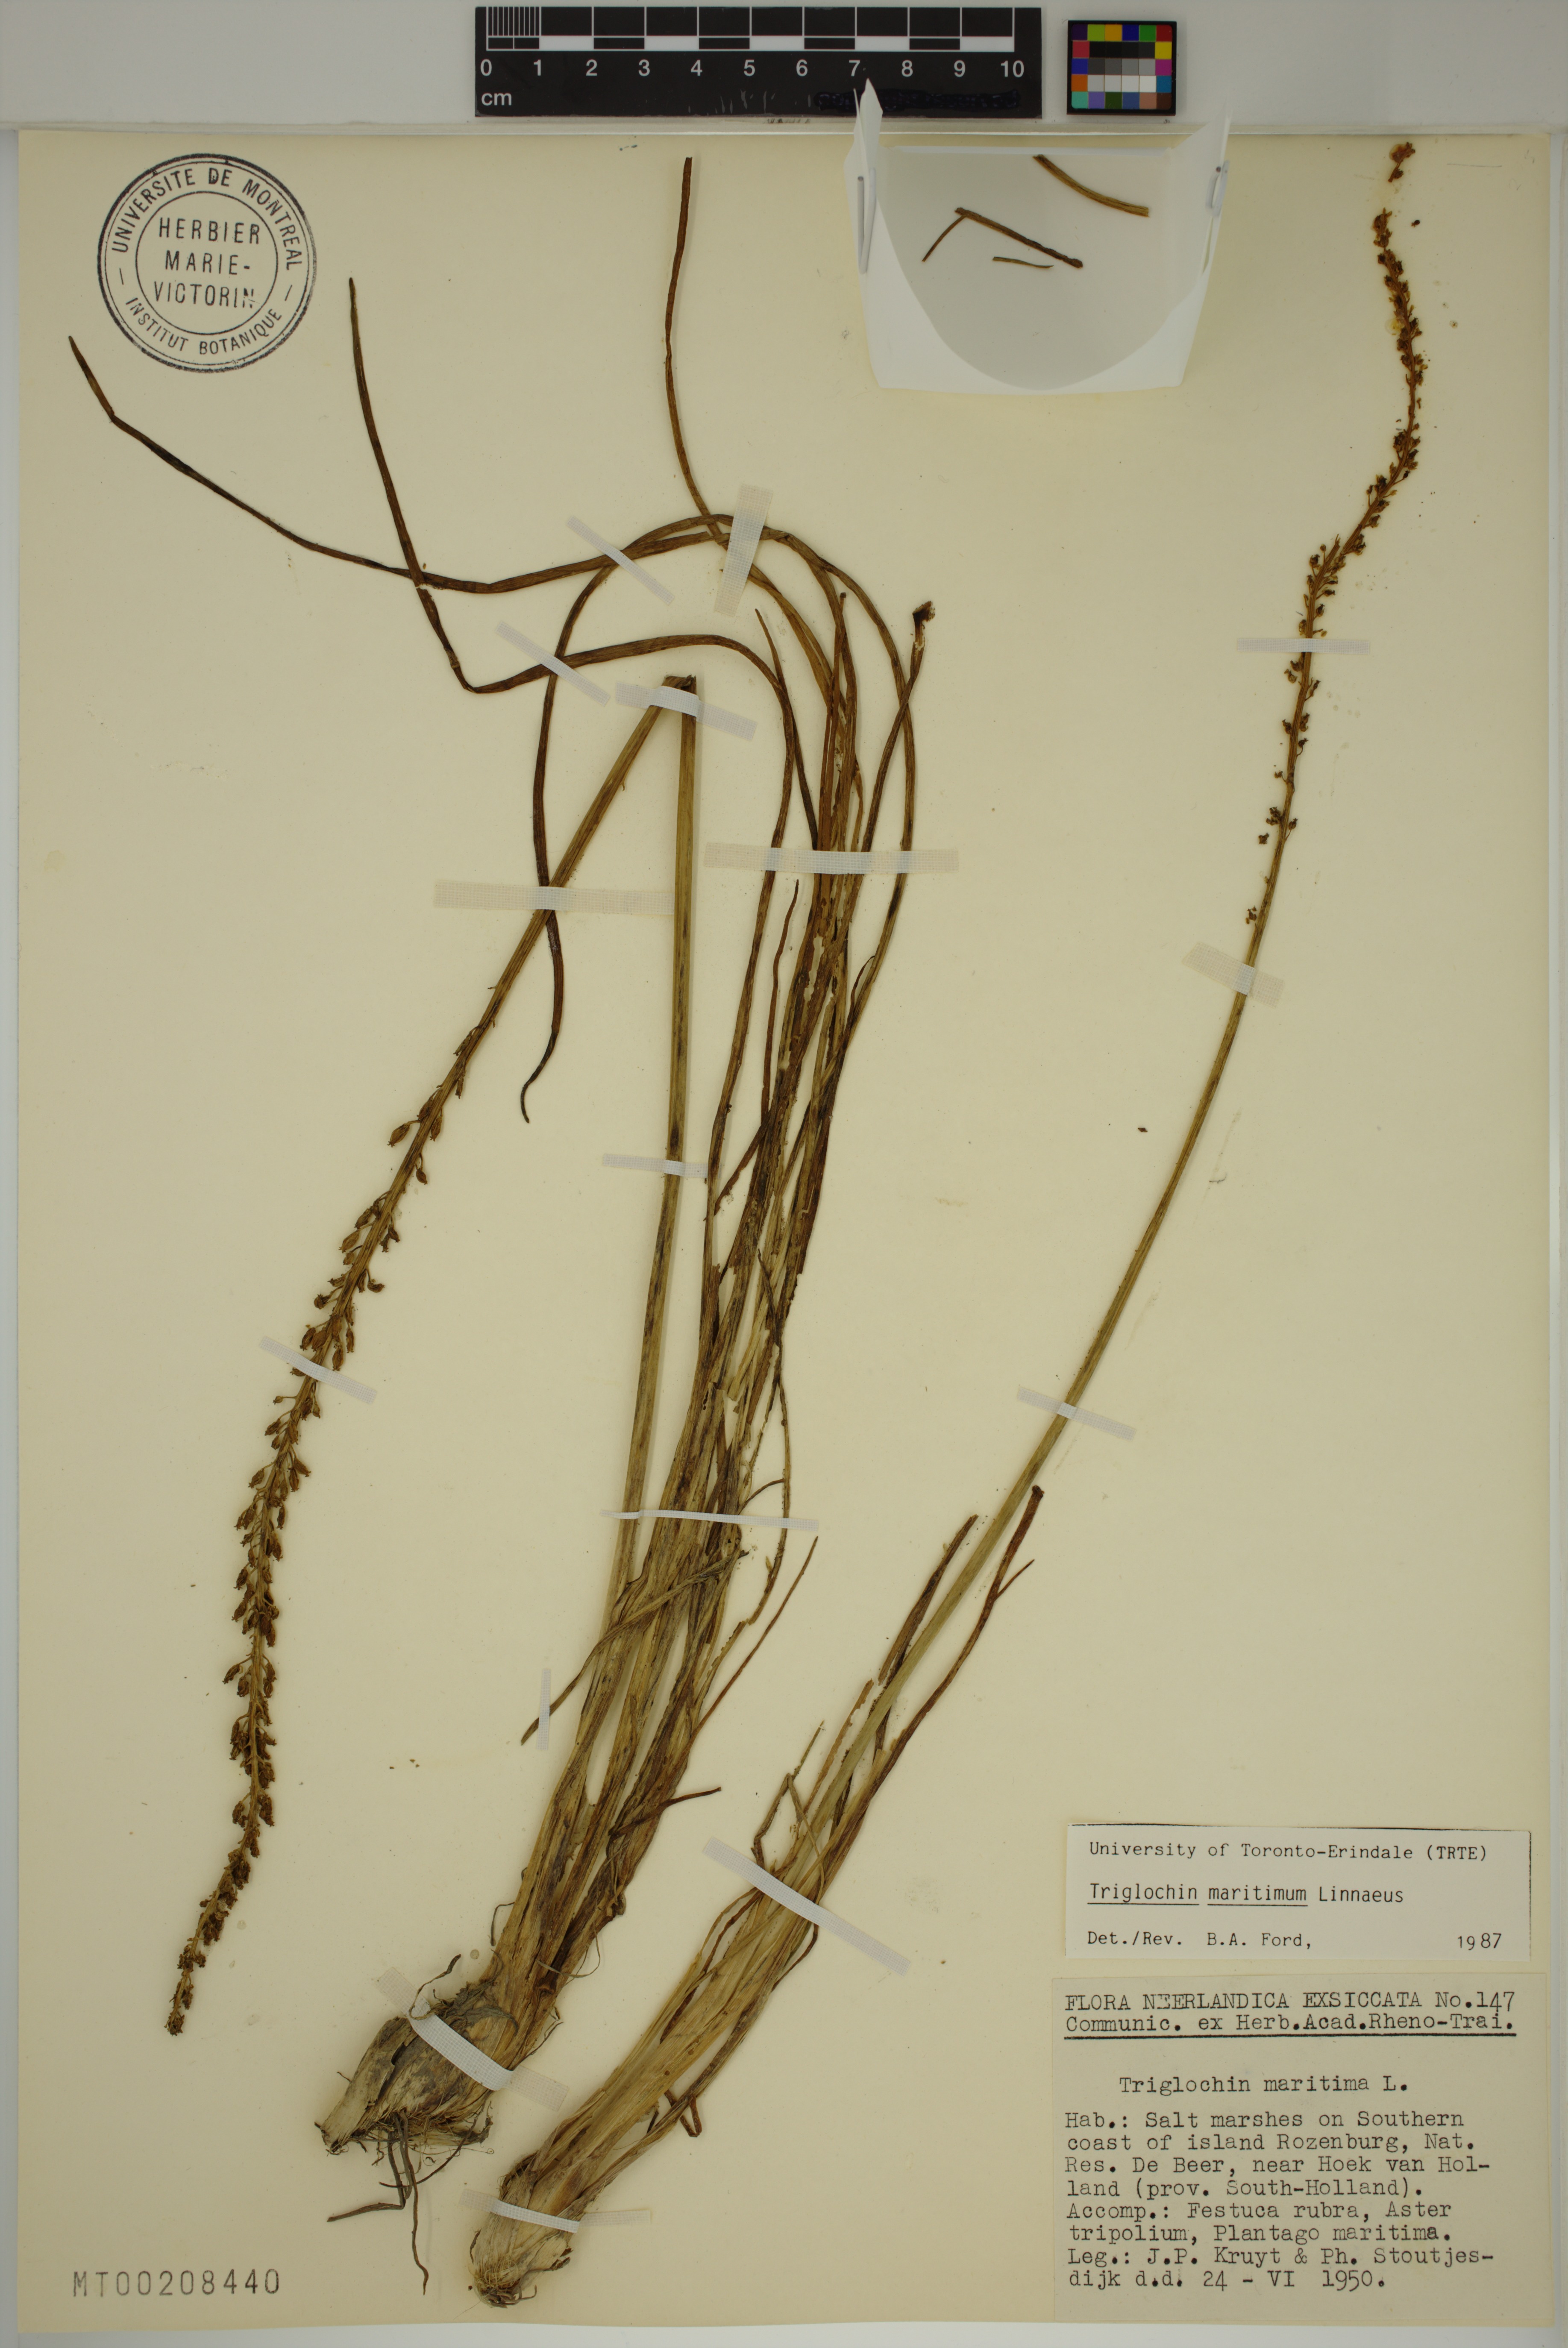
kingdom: Plantae
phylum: Tracheophyta
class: Liliopsida
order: Alismatales
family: Juncaginaceae
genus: Triglochin
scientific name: Triglochin maritima
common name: Sea arrowgrass
